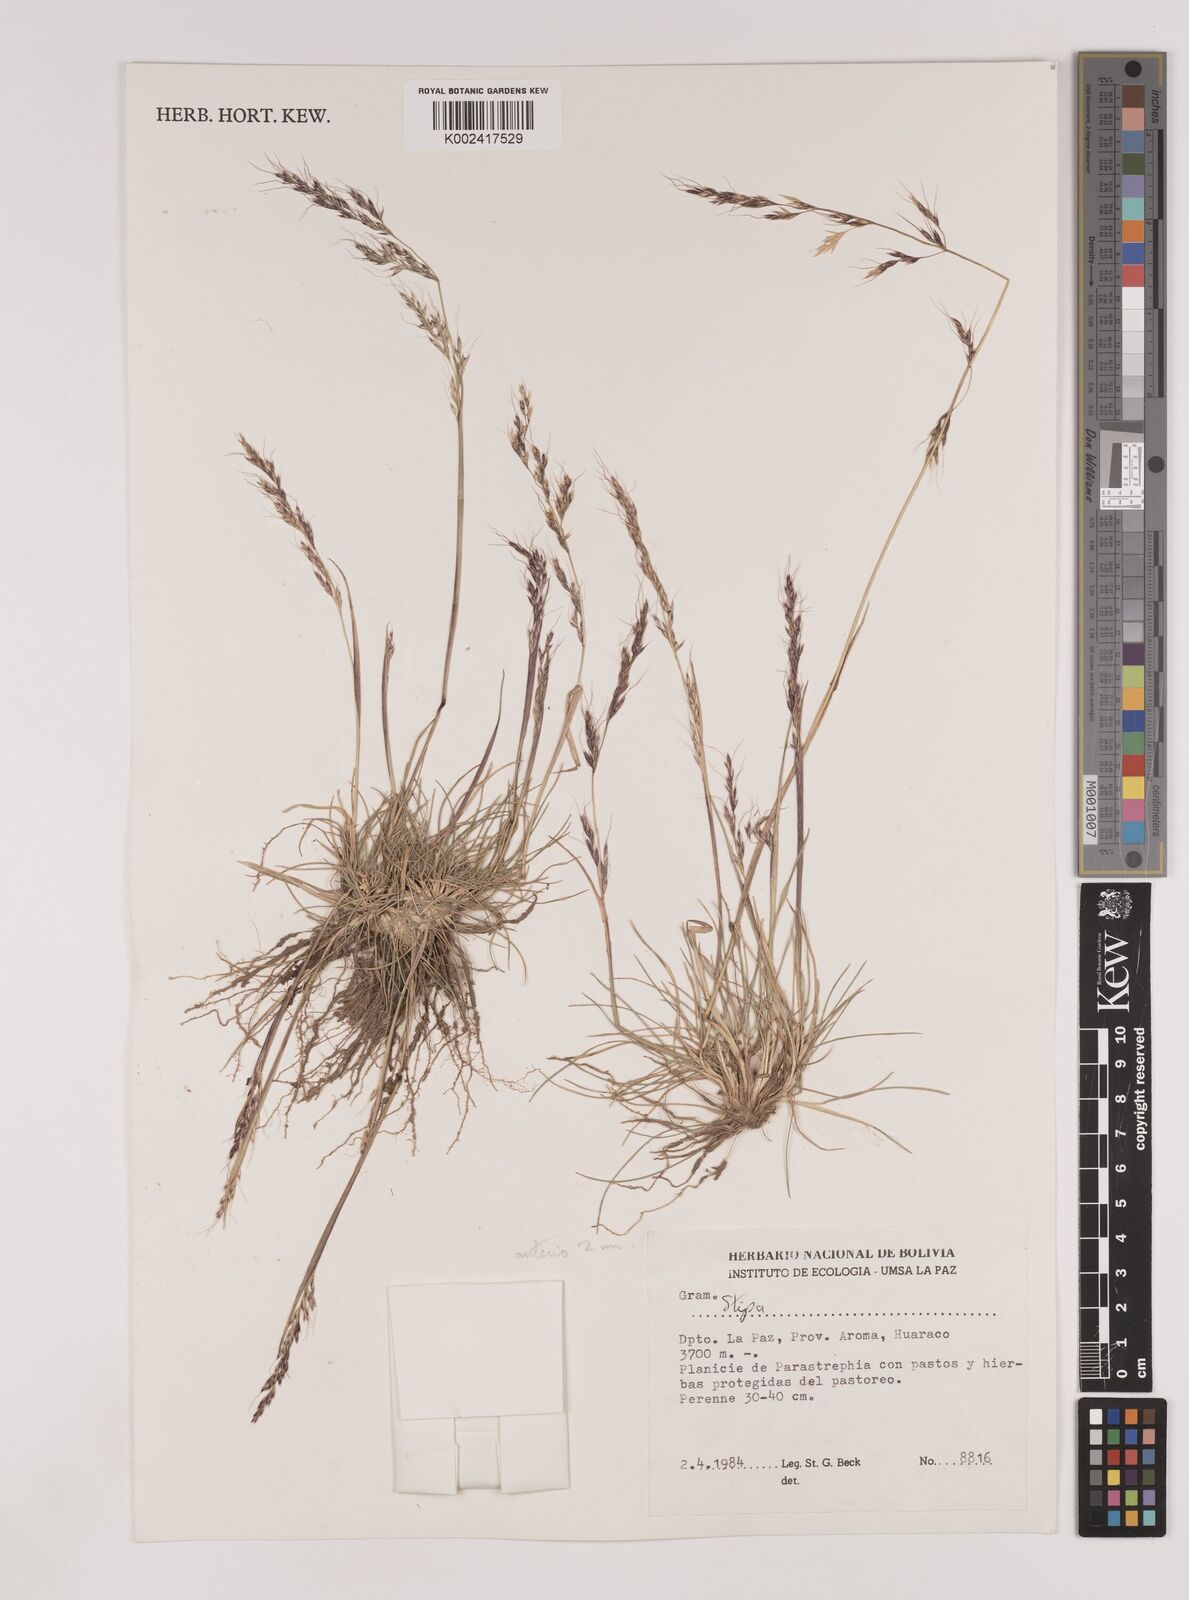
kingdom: Plantae
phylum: Tracheophyta
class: Liliopsida
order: Poales
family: Poaceae
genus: Nassella
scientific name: Nassella pubiflora
